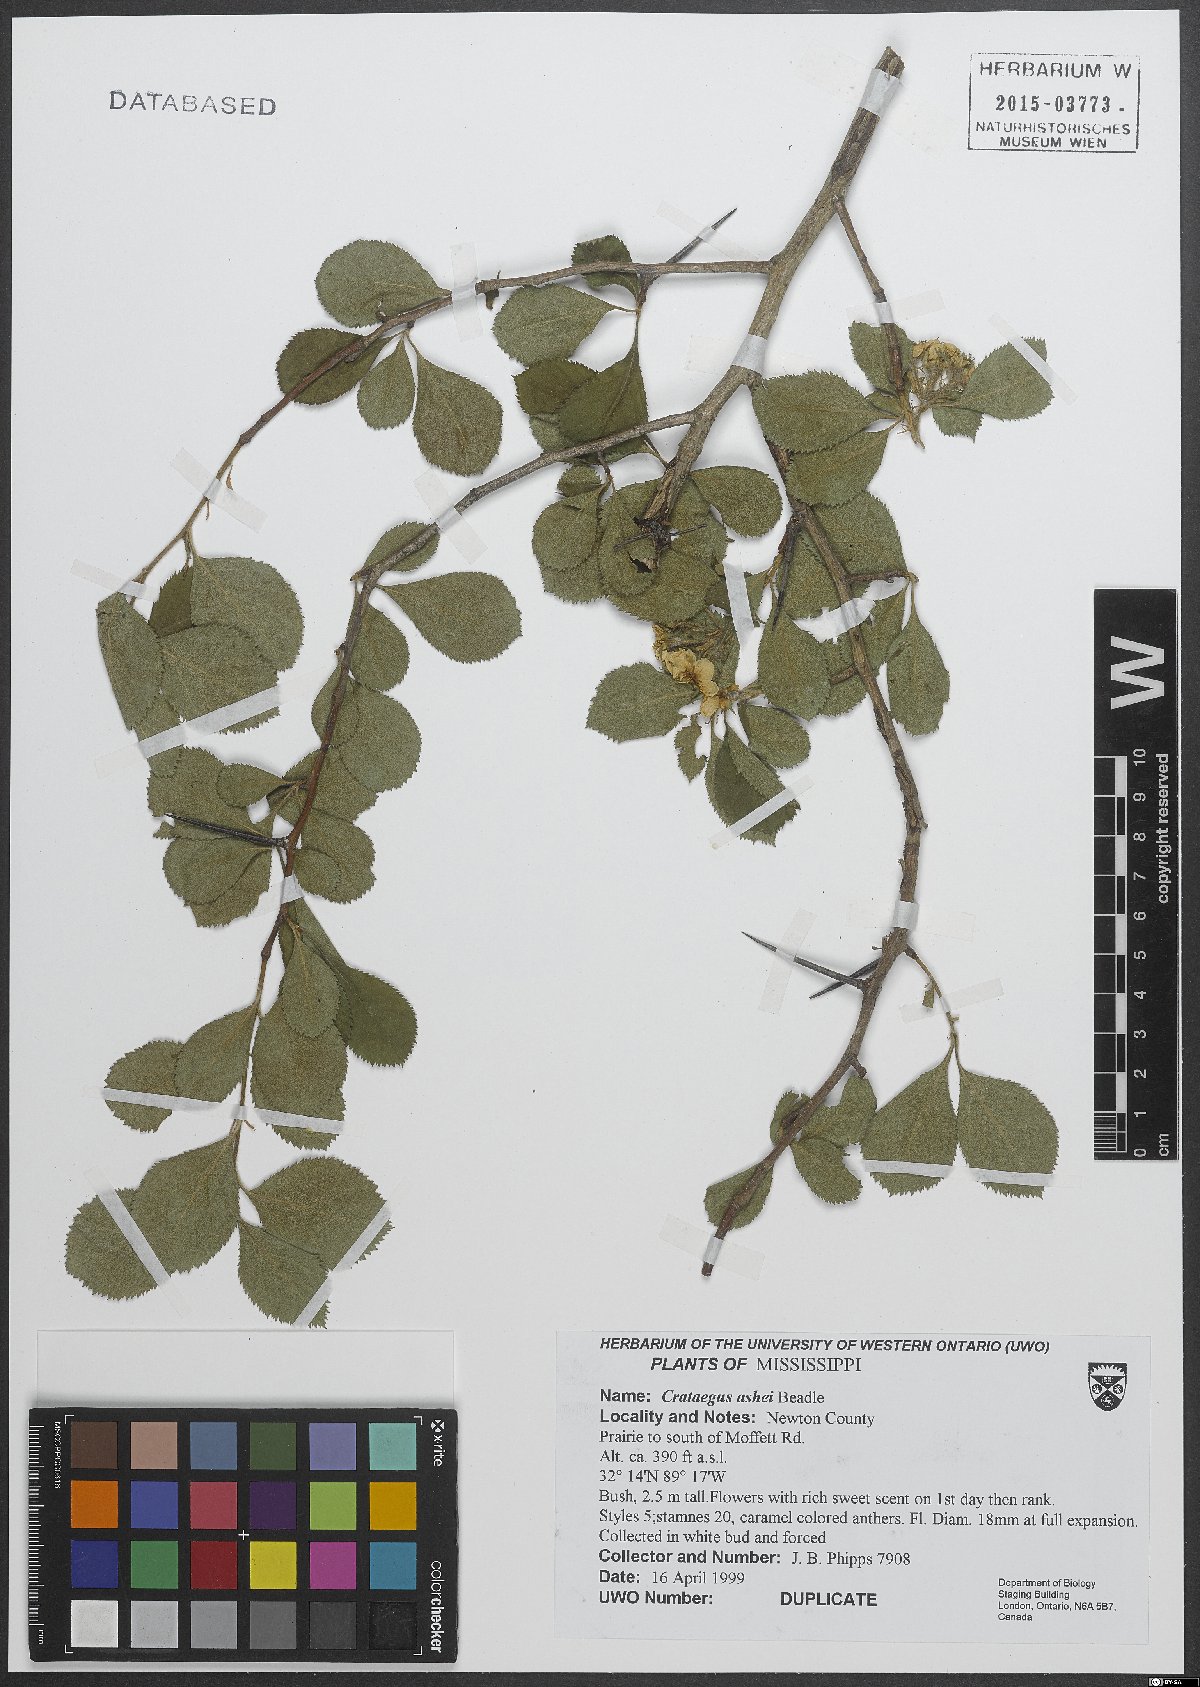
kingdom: Plantae
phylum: Tracheophyta
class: Magnoliopsida
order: Rosales
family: Rosaceae
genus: Crataegus
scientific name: Crataegus ashei
